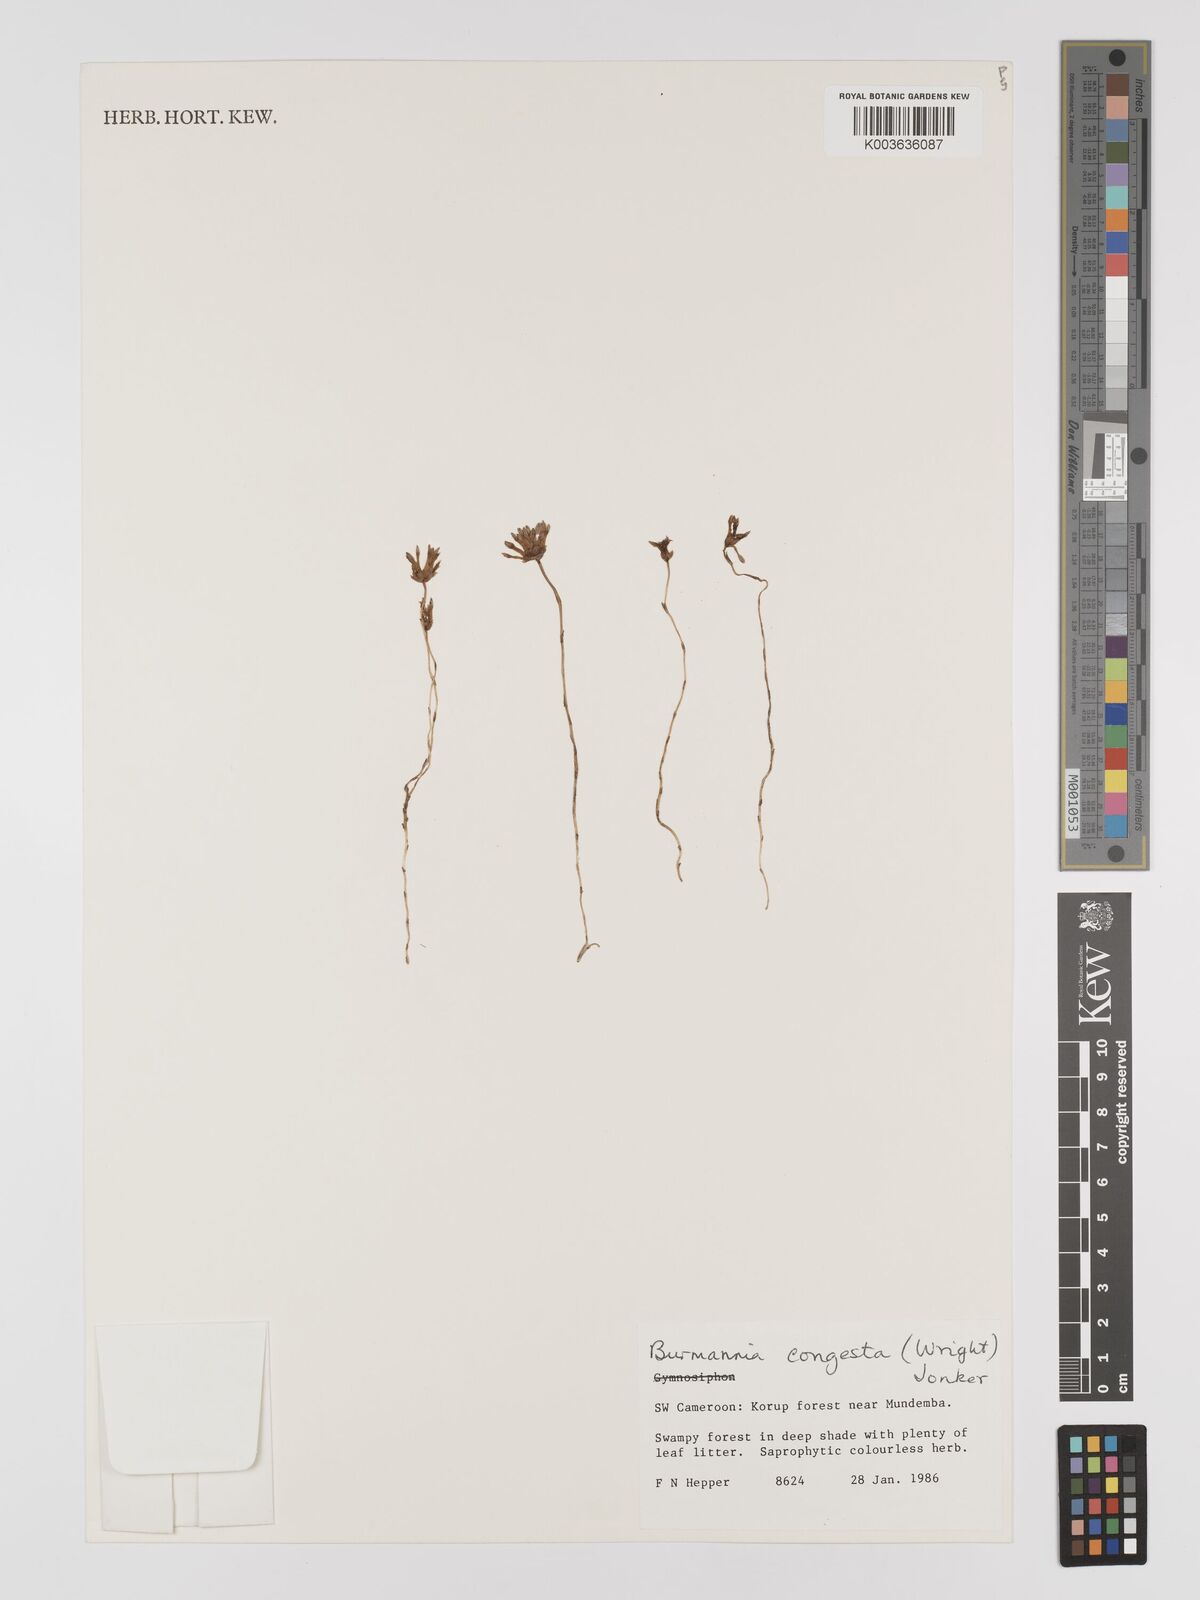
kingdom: Plantae
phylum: Tracheophyta
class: Liliopsida
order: Dioscoreales
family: Burmanniaceae
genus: Campylosiphon
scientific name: Campylosiphon congestus
